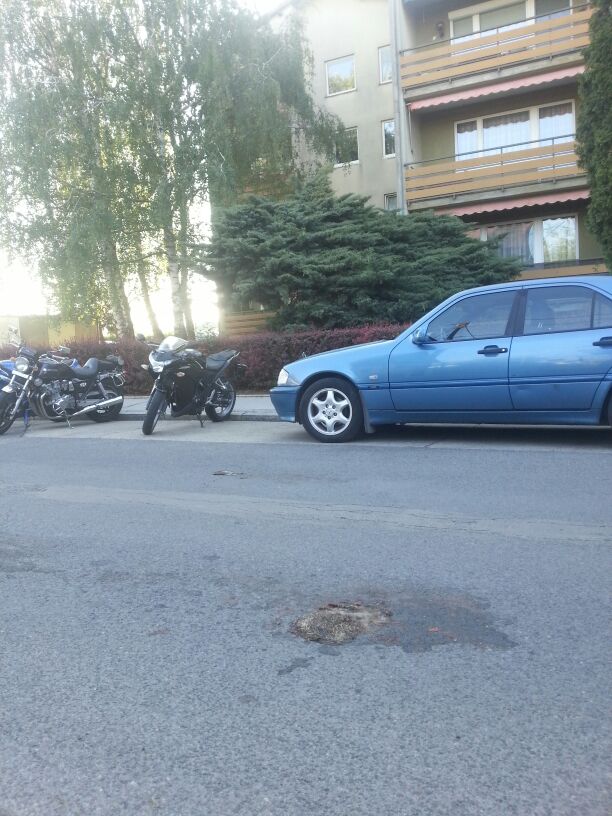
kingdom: Animalia
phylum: Chordata
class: Mammalia
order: Erinaceomorpha
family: Erinaceidae
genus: Erinaceus
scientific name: Erinaceus
